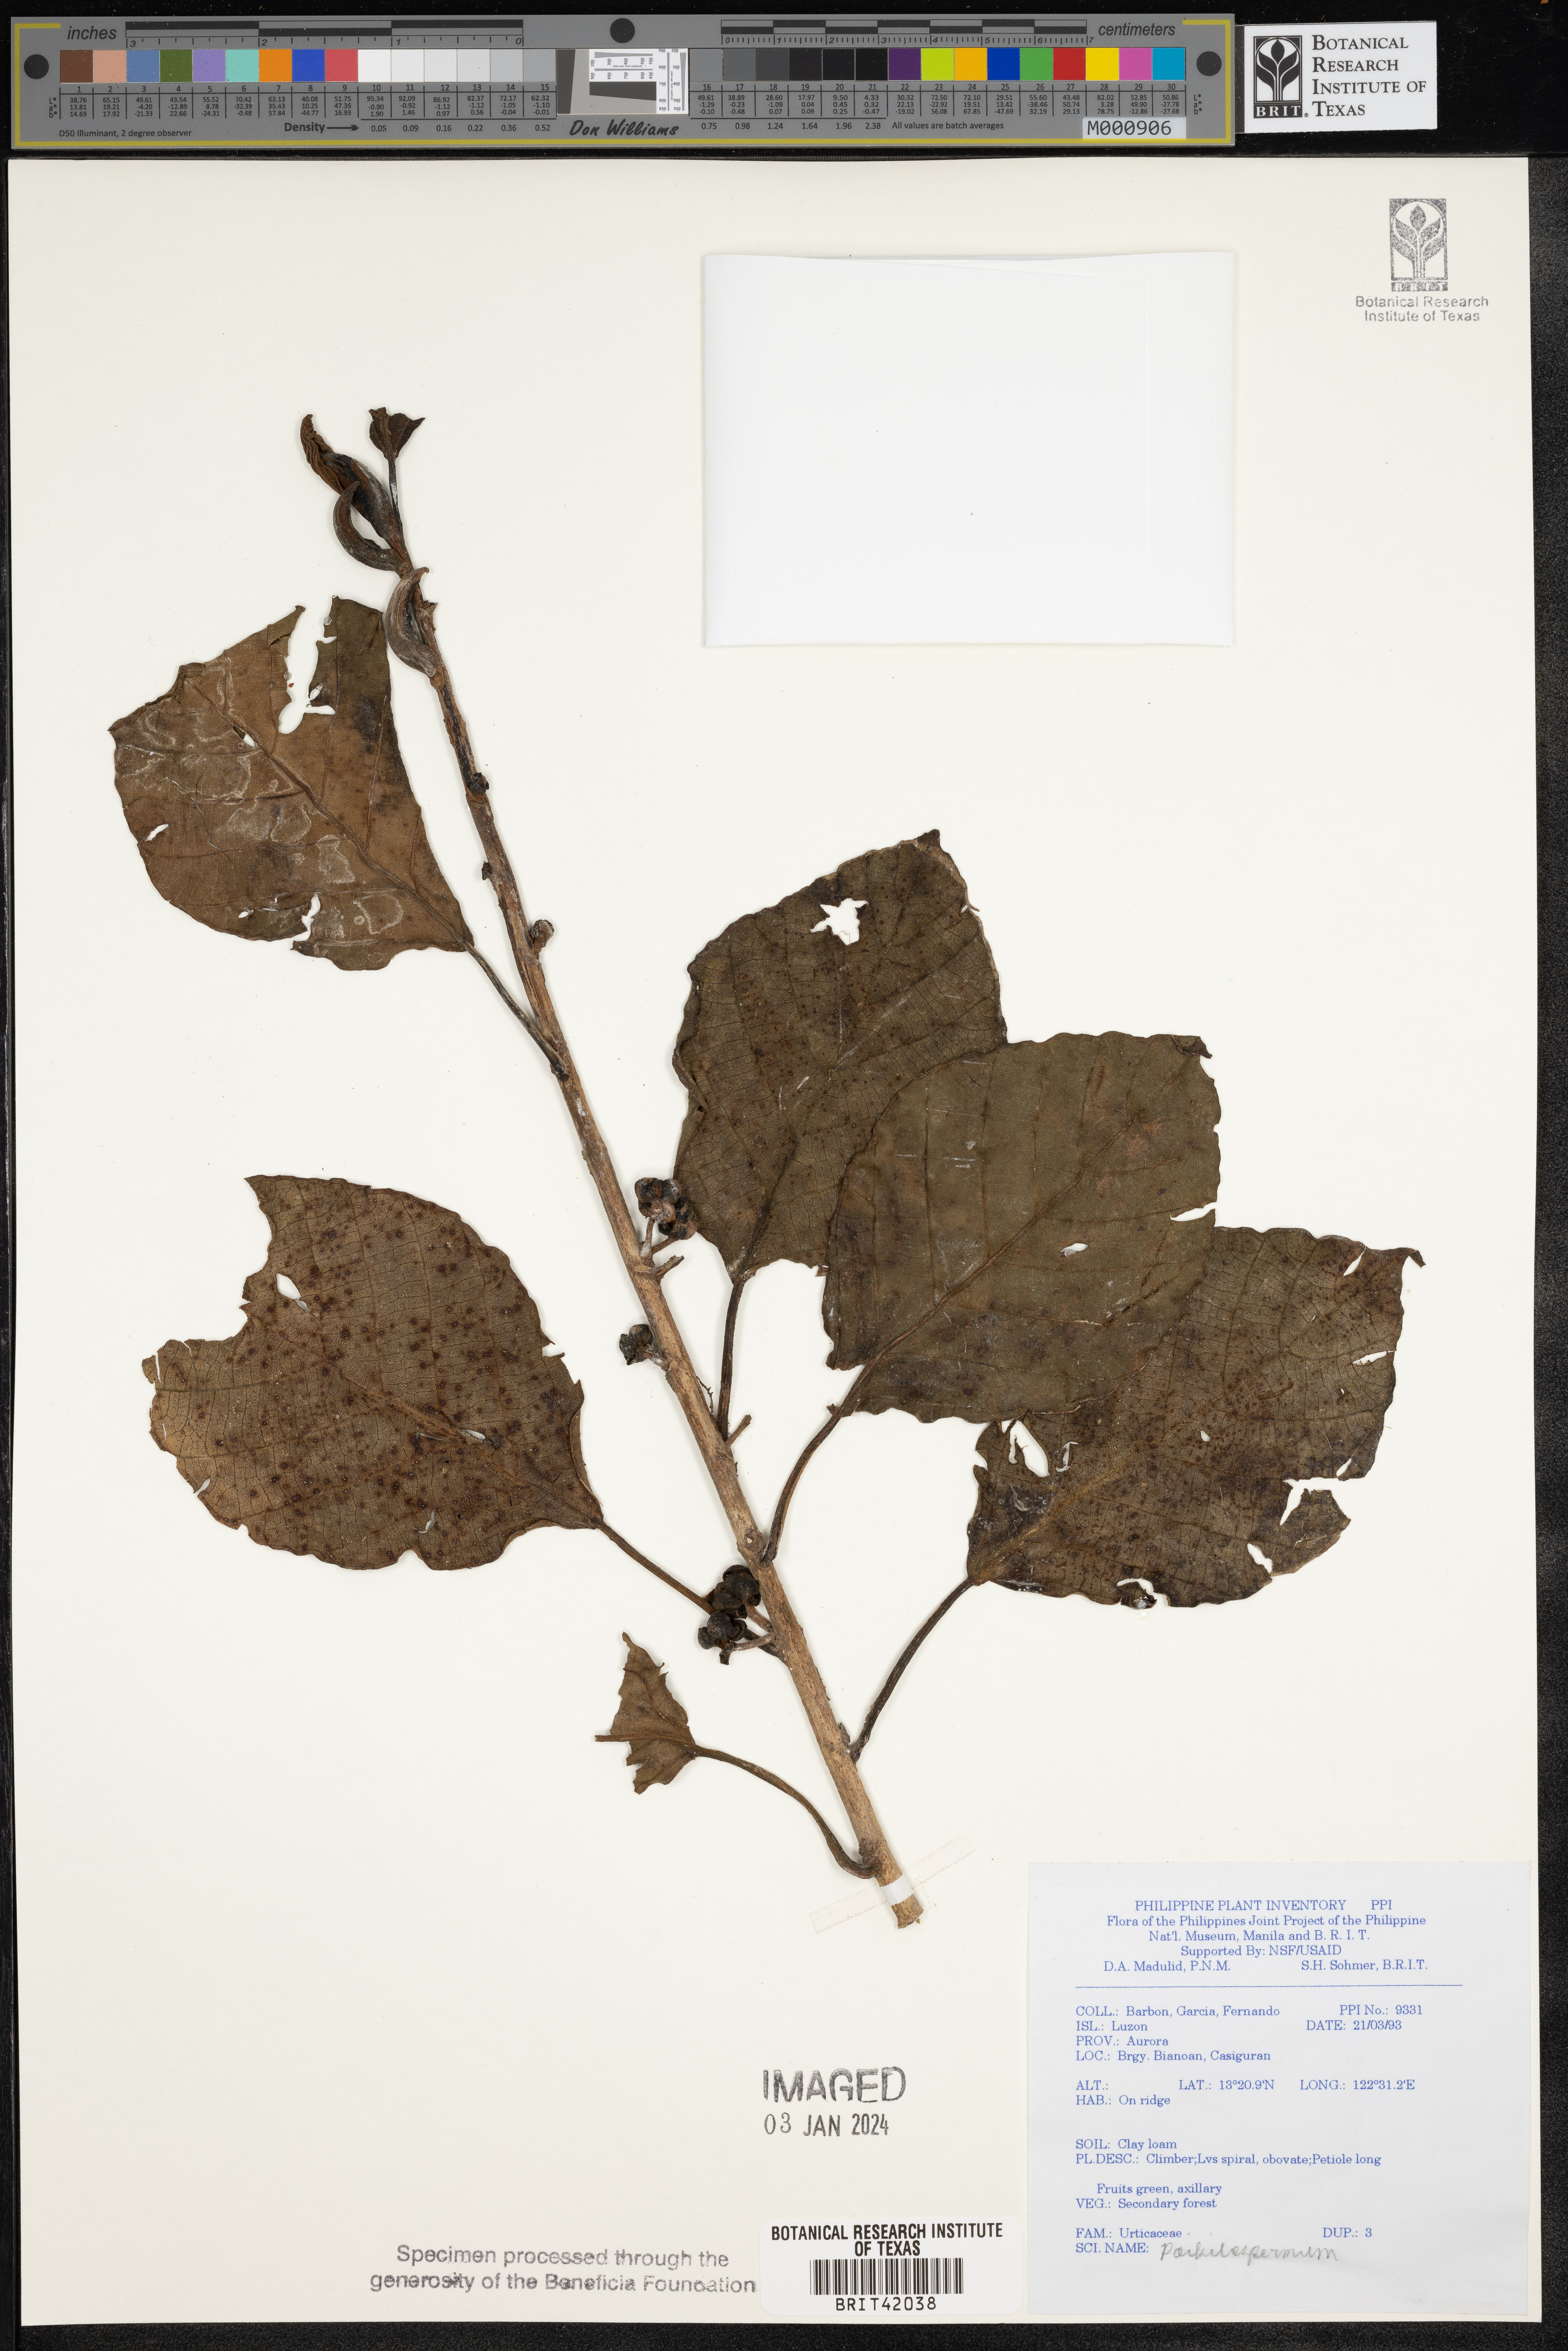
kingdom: Plantae
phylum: Tracheophyta
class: Magnoliopsida
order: Rosales
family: Urticaceae
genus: Poikilospermum
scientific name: Poikilospermum
